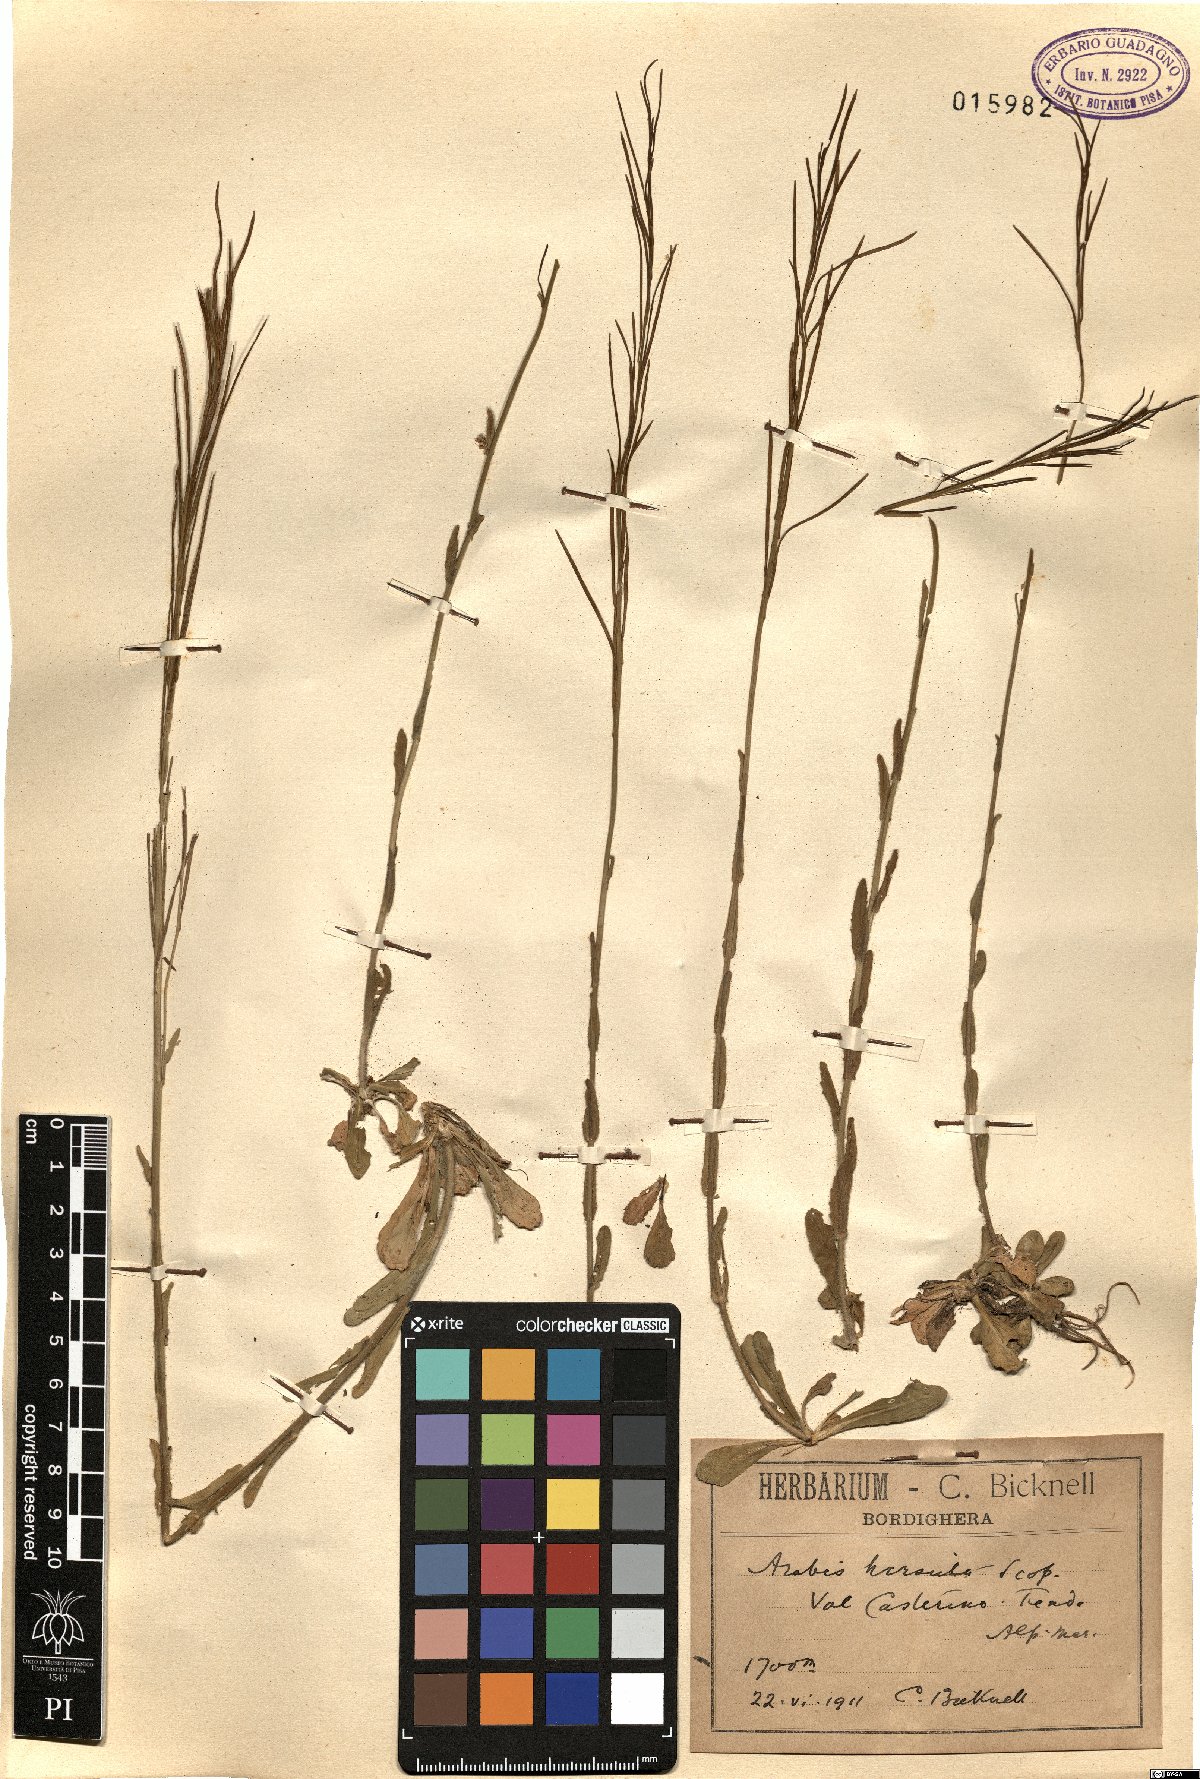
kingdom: Plantae
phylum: Tracheophyta
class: Magnoliopsida
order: Brassicales
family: Brassicaceae
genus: Arabis
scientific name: Arabis hirsuta
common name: Hairy rock-cress
